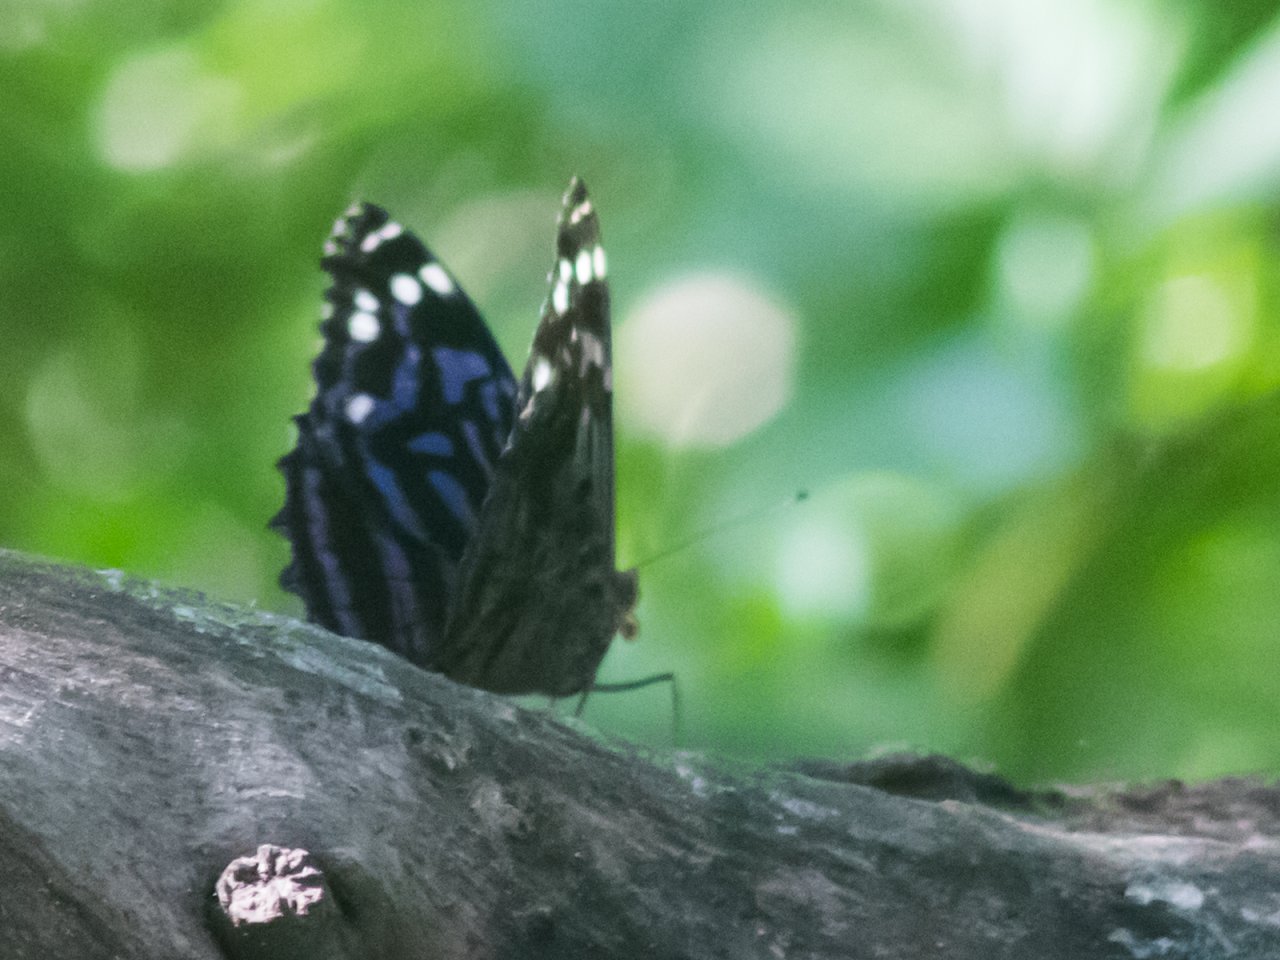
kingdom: Animalia
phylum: Arthropoda
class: Insecta
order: Lepidoptera
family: Nymphalidae
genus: Myscelia
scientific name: Myscelia ethusa
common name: Mexican Bluewing
